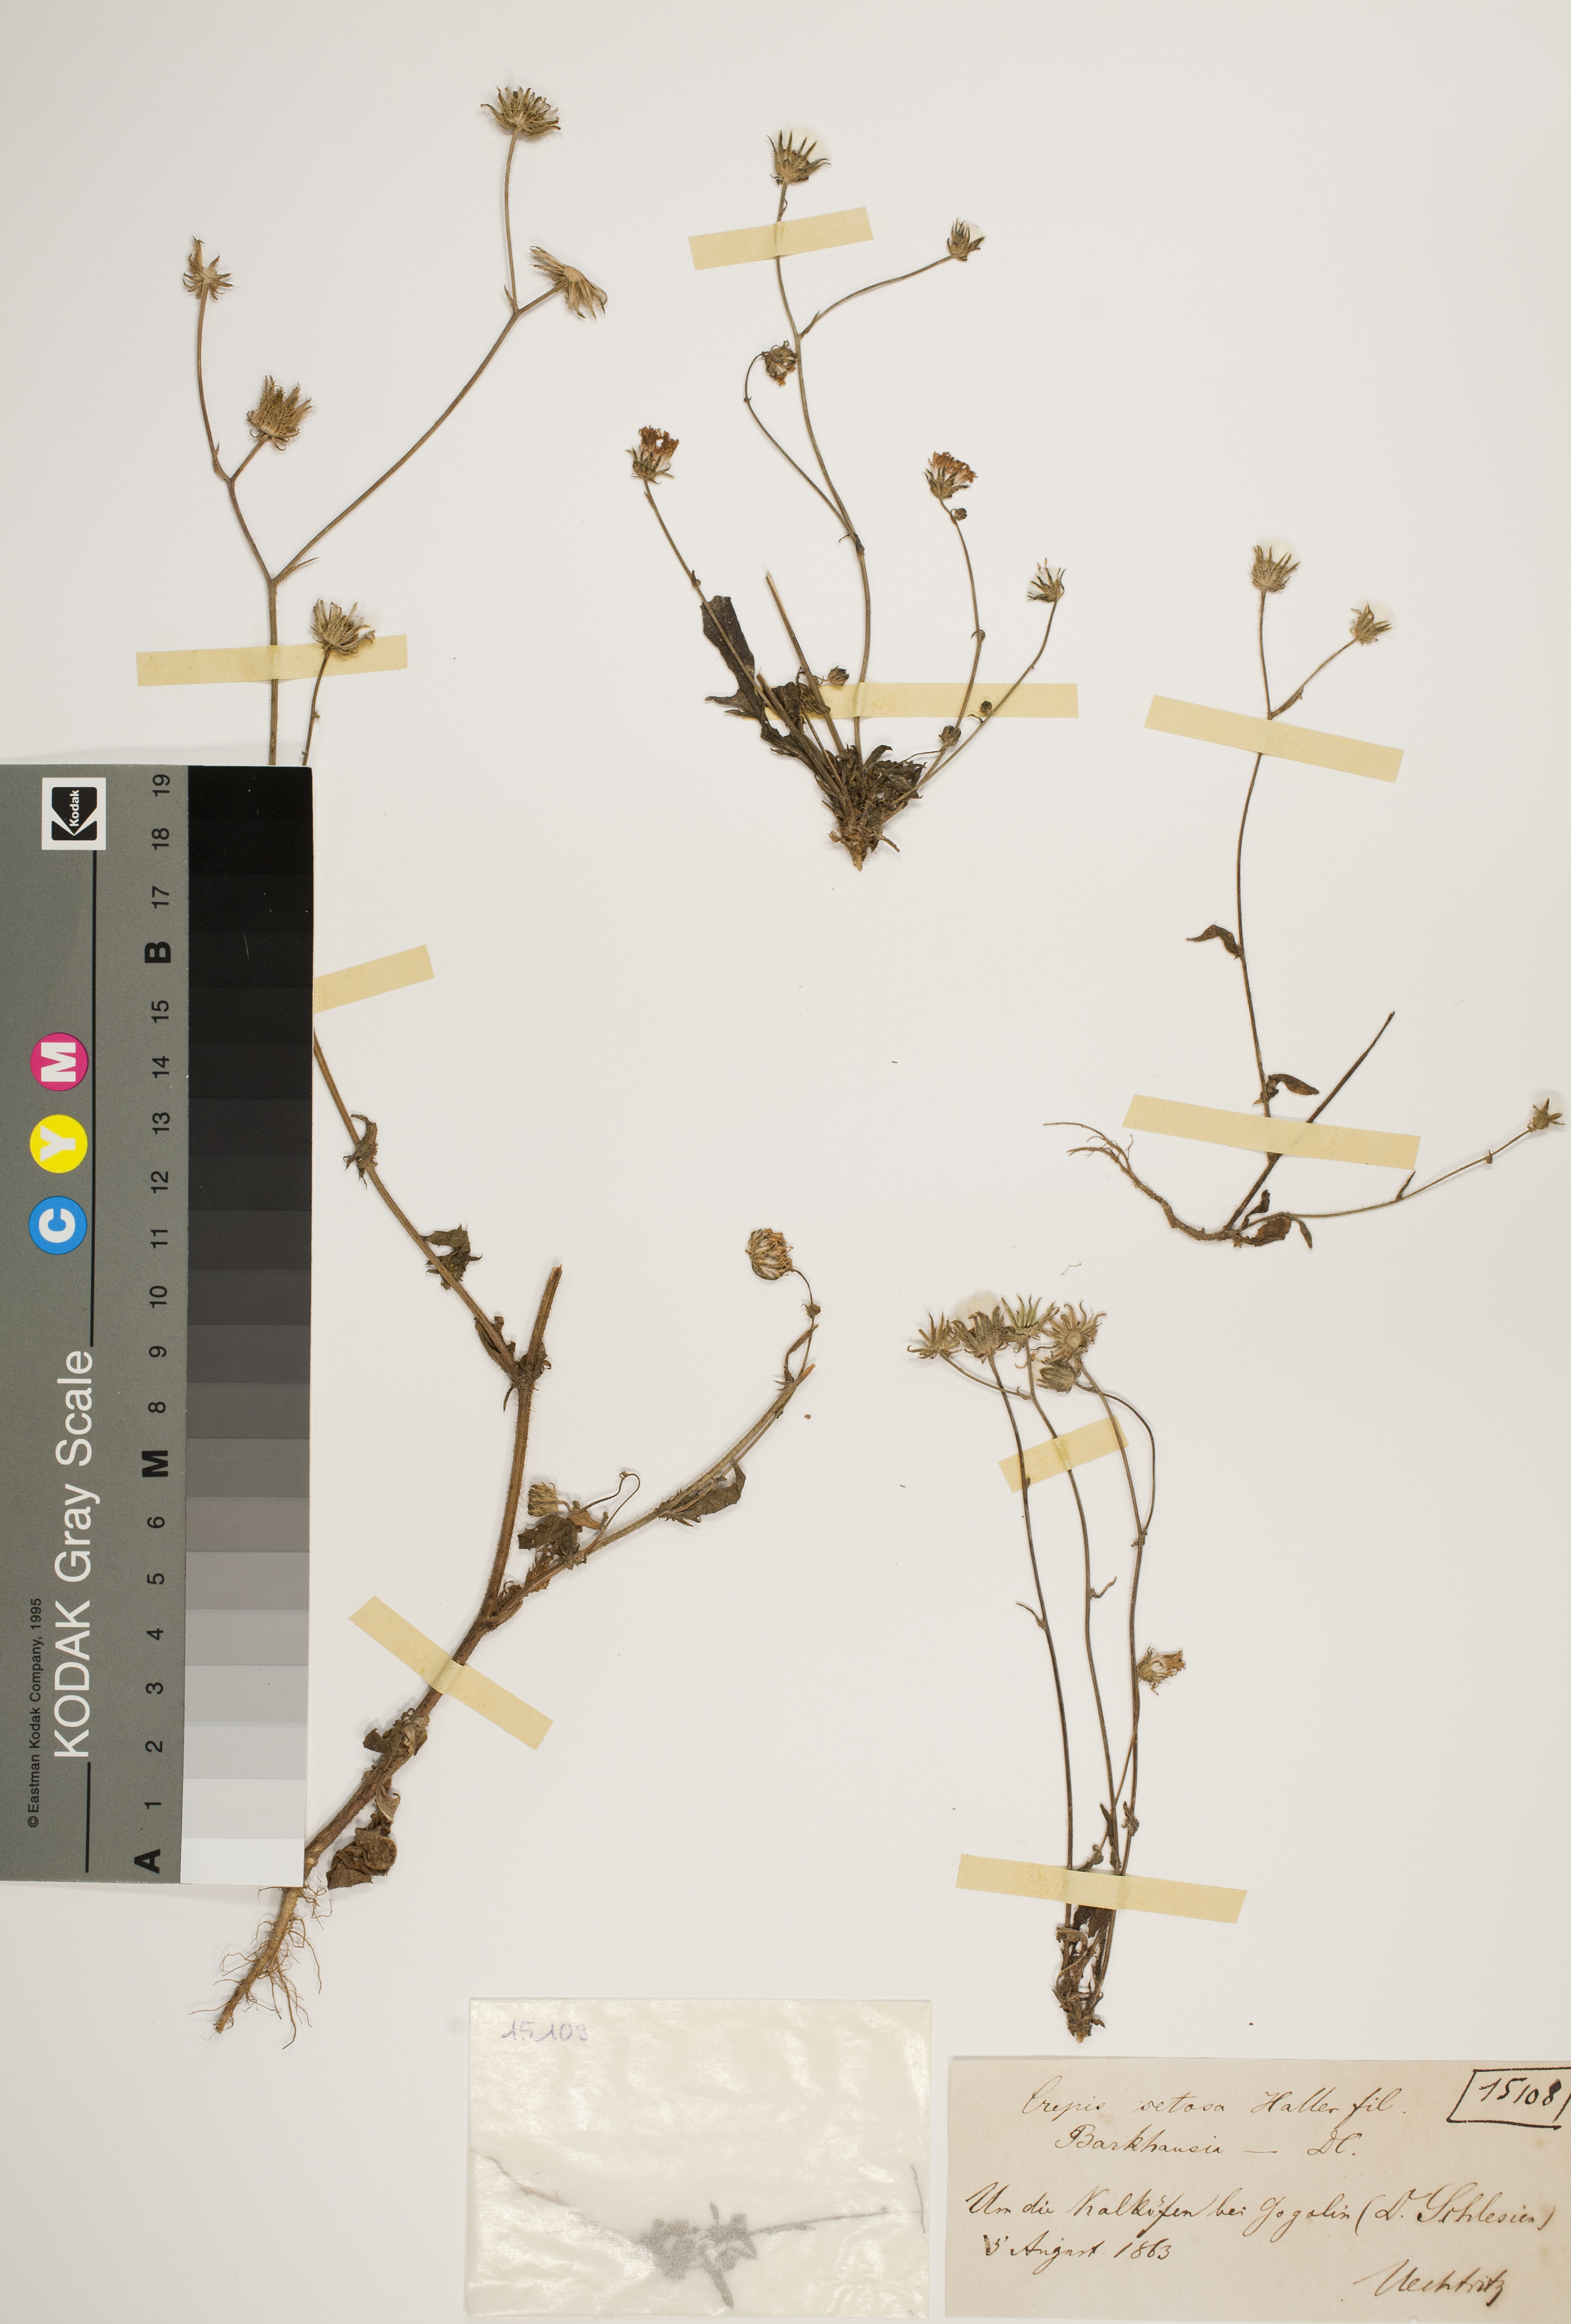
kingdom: Plantae
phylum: Tracheophyta
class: Magnoliopsida
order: Asterales
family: Asteraceae
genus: Crepis
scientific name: Crepis setosa
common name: Bristly hawk's-beard
